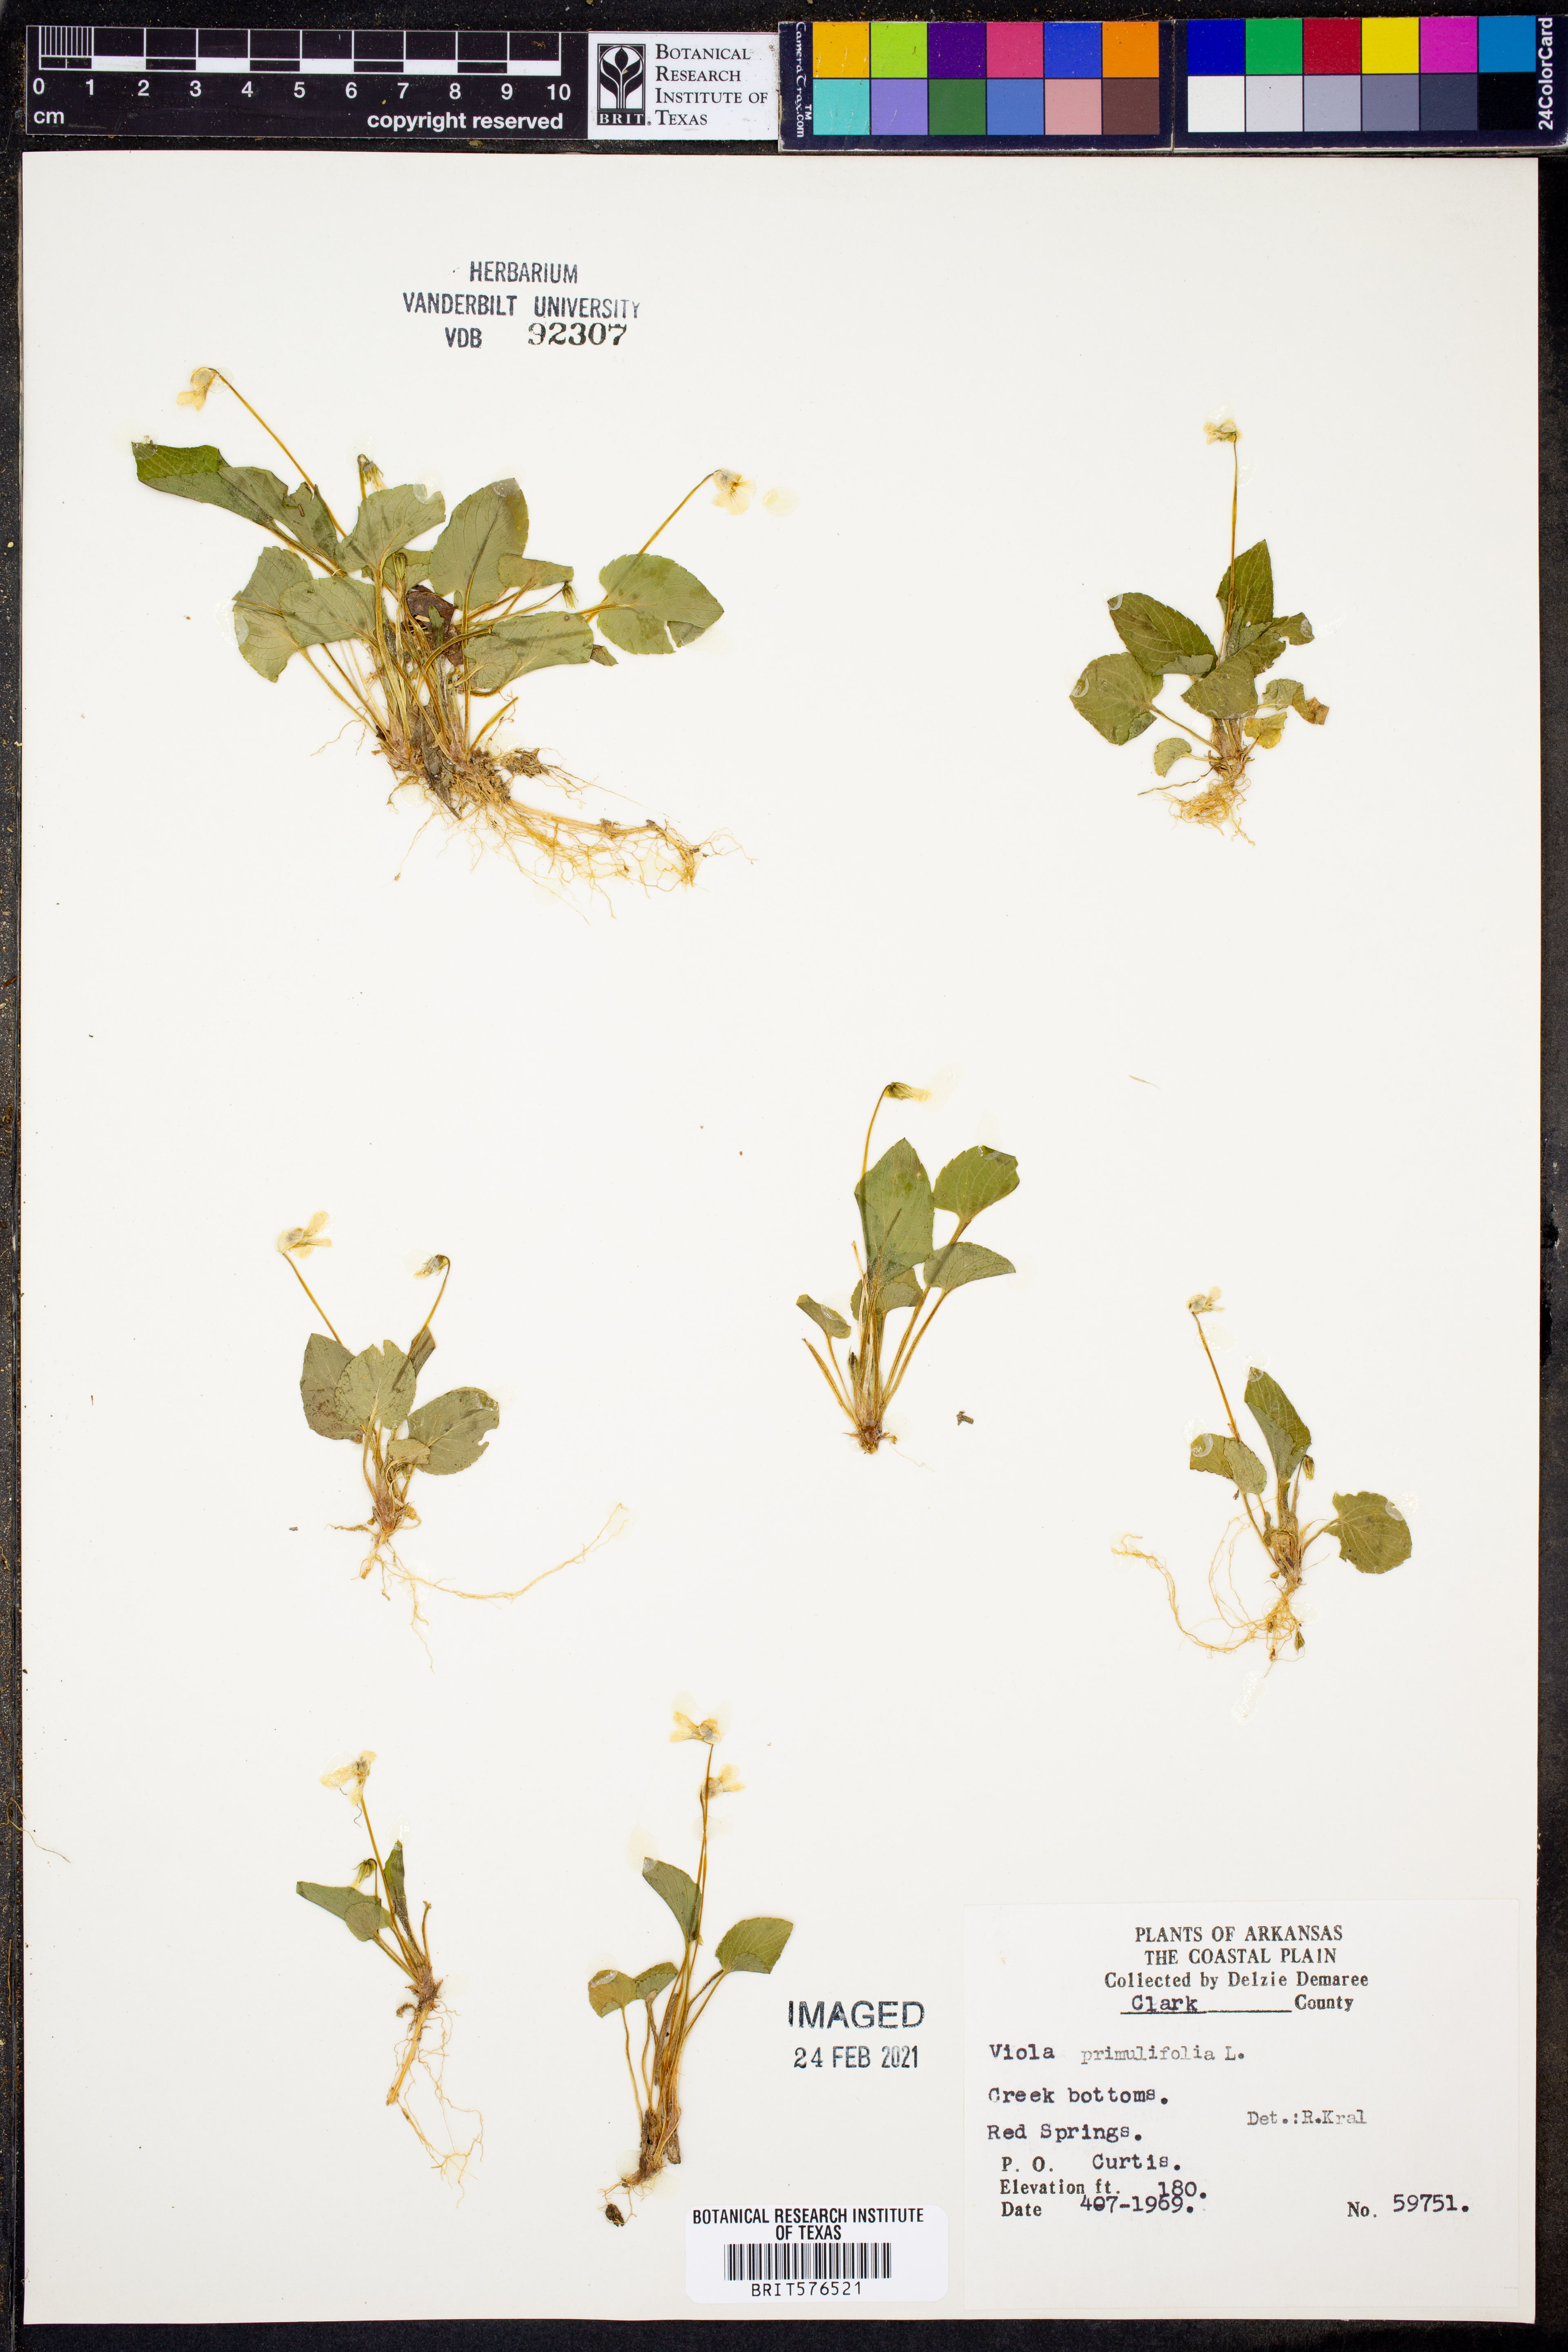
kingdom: Plantae
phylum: Tracheophyta
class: Magnoliopsida
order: Malpighiales
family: Violaceae
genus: Viola
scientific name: Viola primulifolia
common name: Primrose-leaf violet
